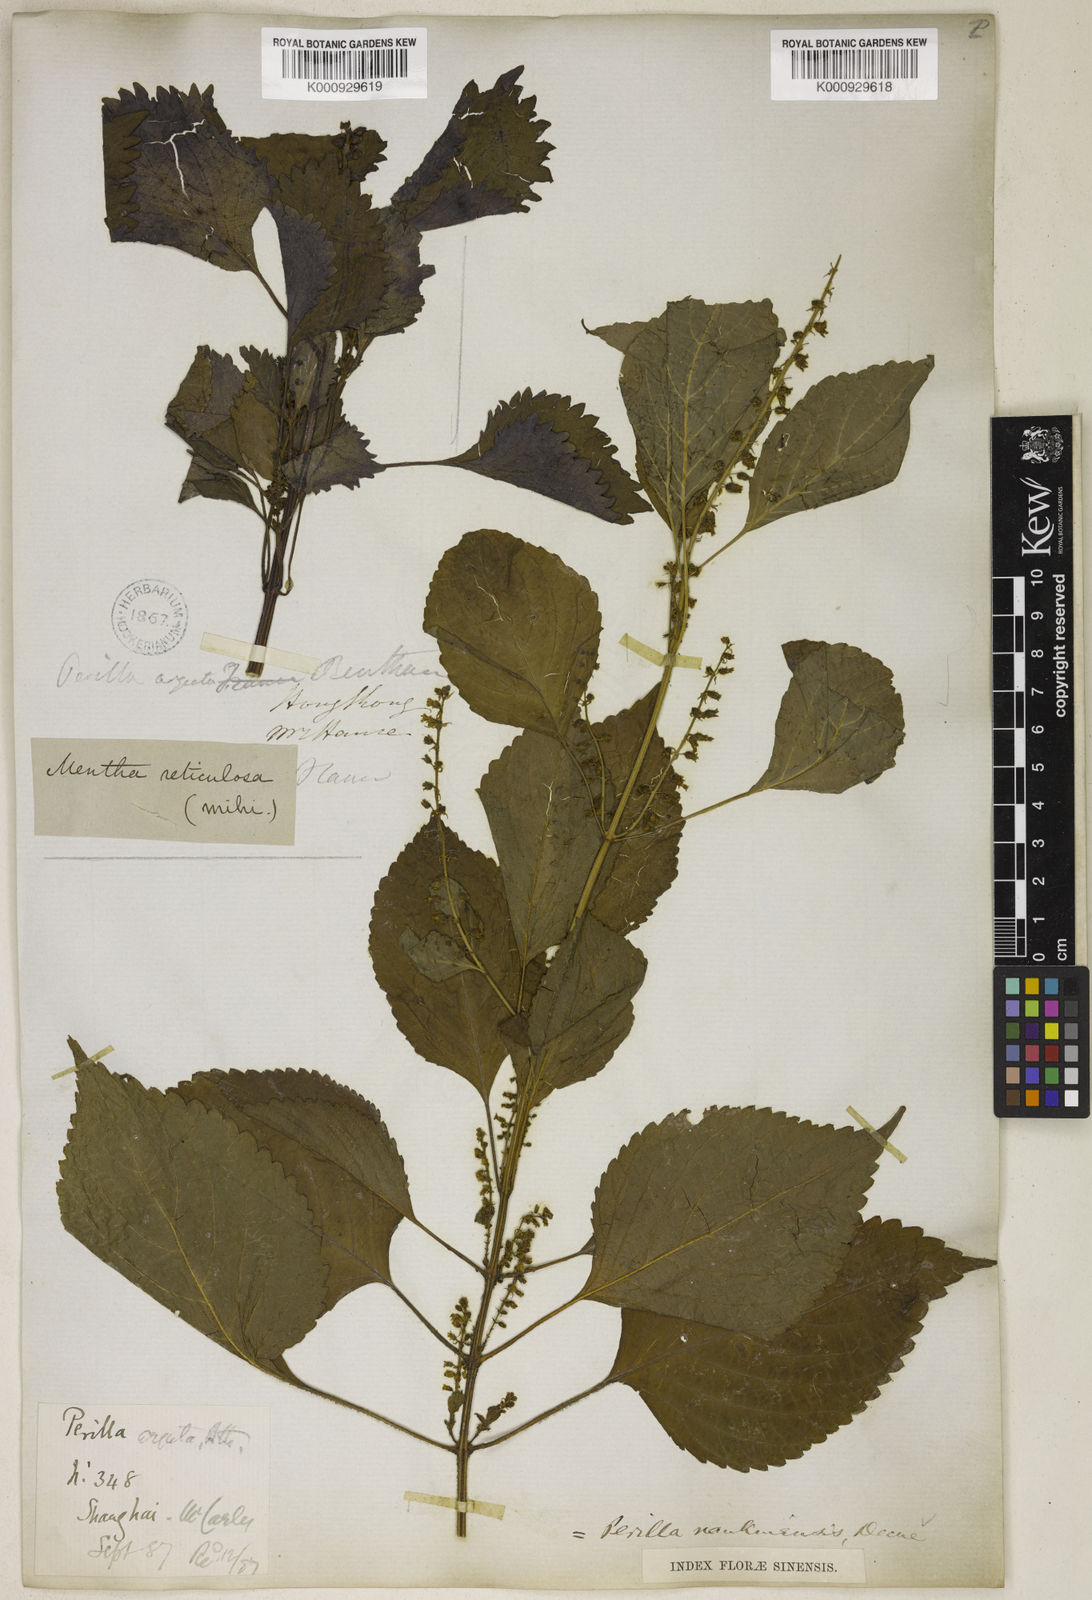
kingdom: Plantae
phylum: Tracheophyta
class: Magnoliopsida
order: Lamiales
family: Lamiaceae
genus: Perilla
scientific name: Perilla frutescens
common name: Perilla
